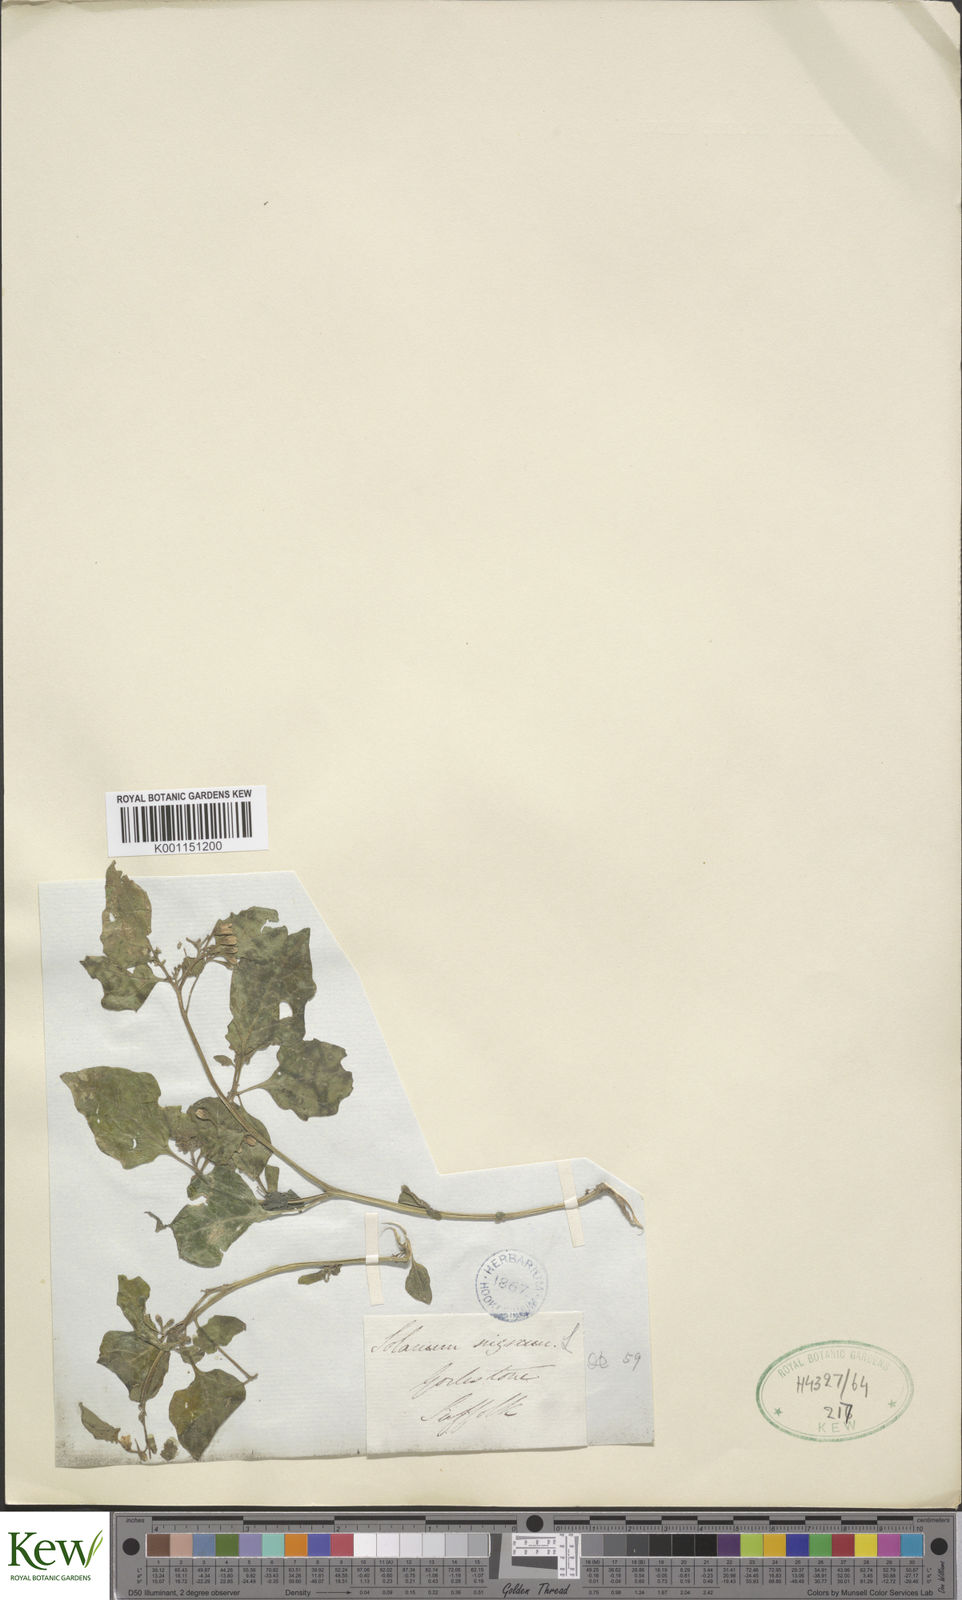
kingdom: Plantae
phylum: Tracheophyta
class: Magnoliopsida
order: Solanales
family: Solanaceae
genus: Solanum
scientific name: Solanum nigrum
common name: Black nightshade
